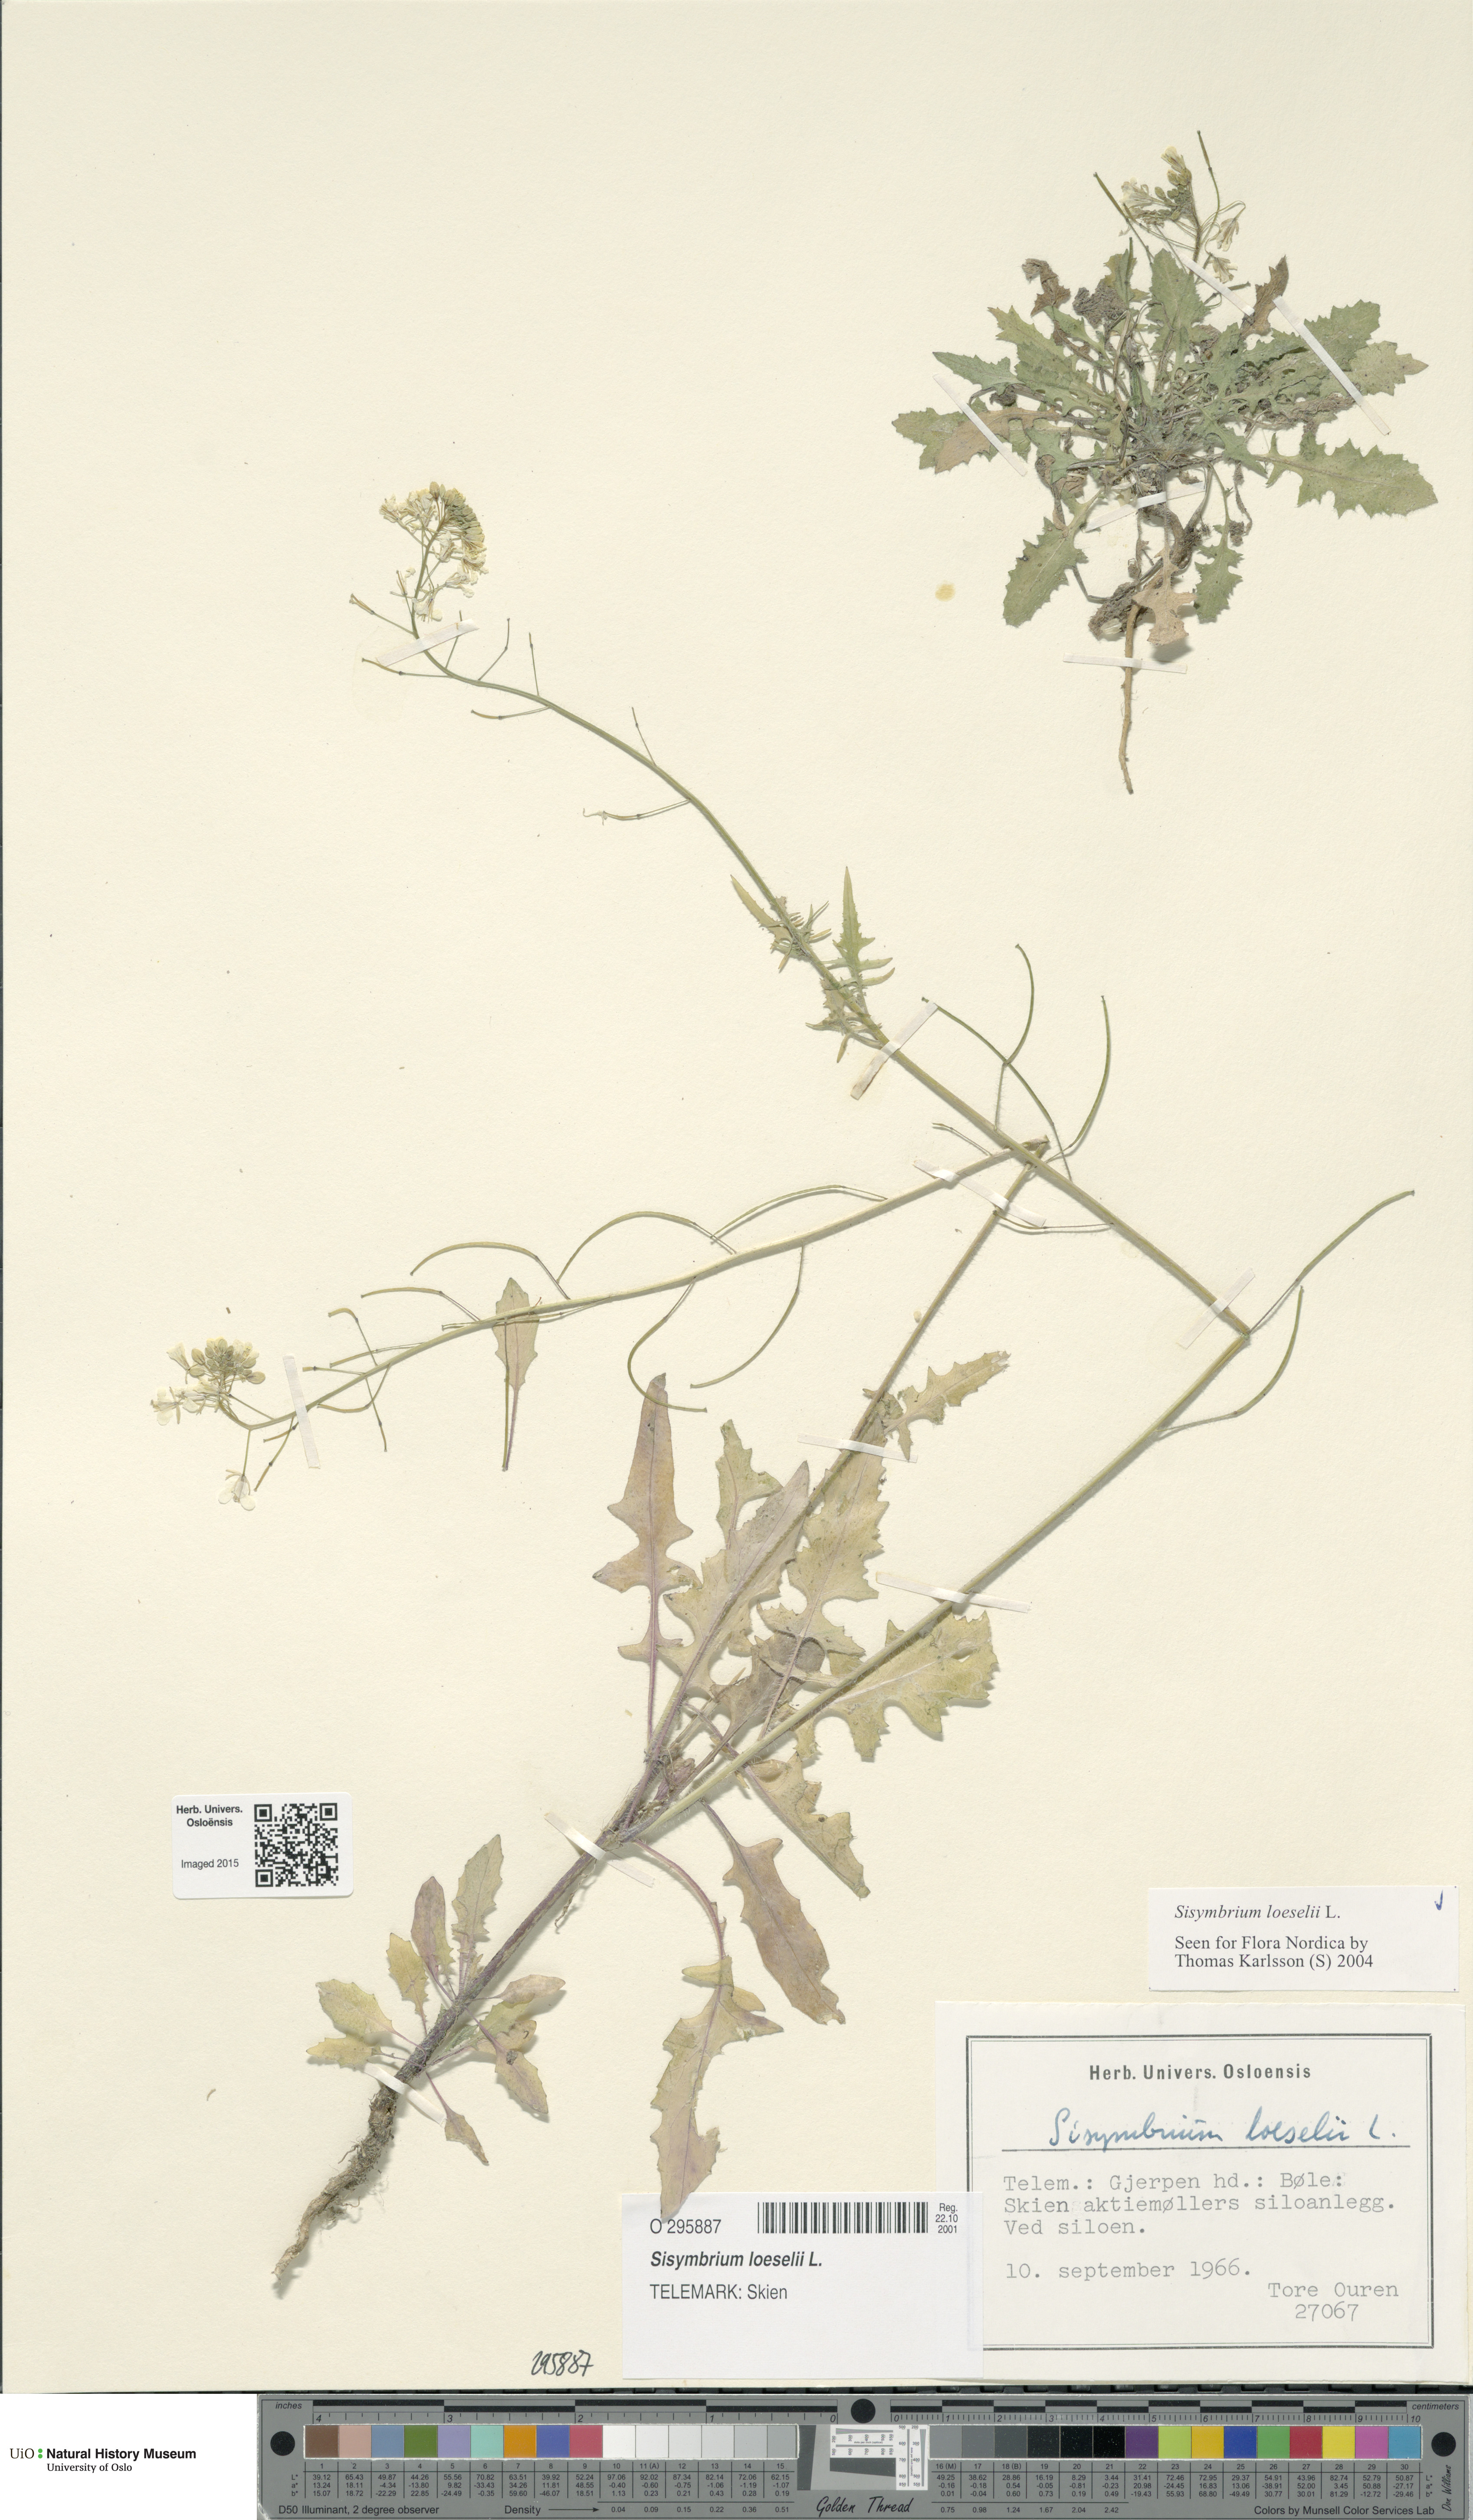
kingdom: Plantae
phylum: Tracheophyta
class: Magnoliopsida
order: Brassicales
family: Brassicaceae
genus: Sisymbrium
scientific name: Sisymbrium loeselii
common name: False london-rocket
